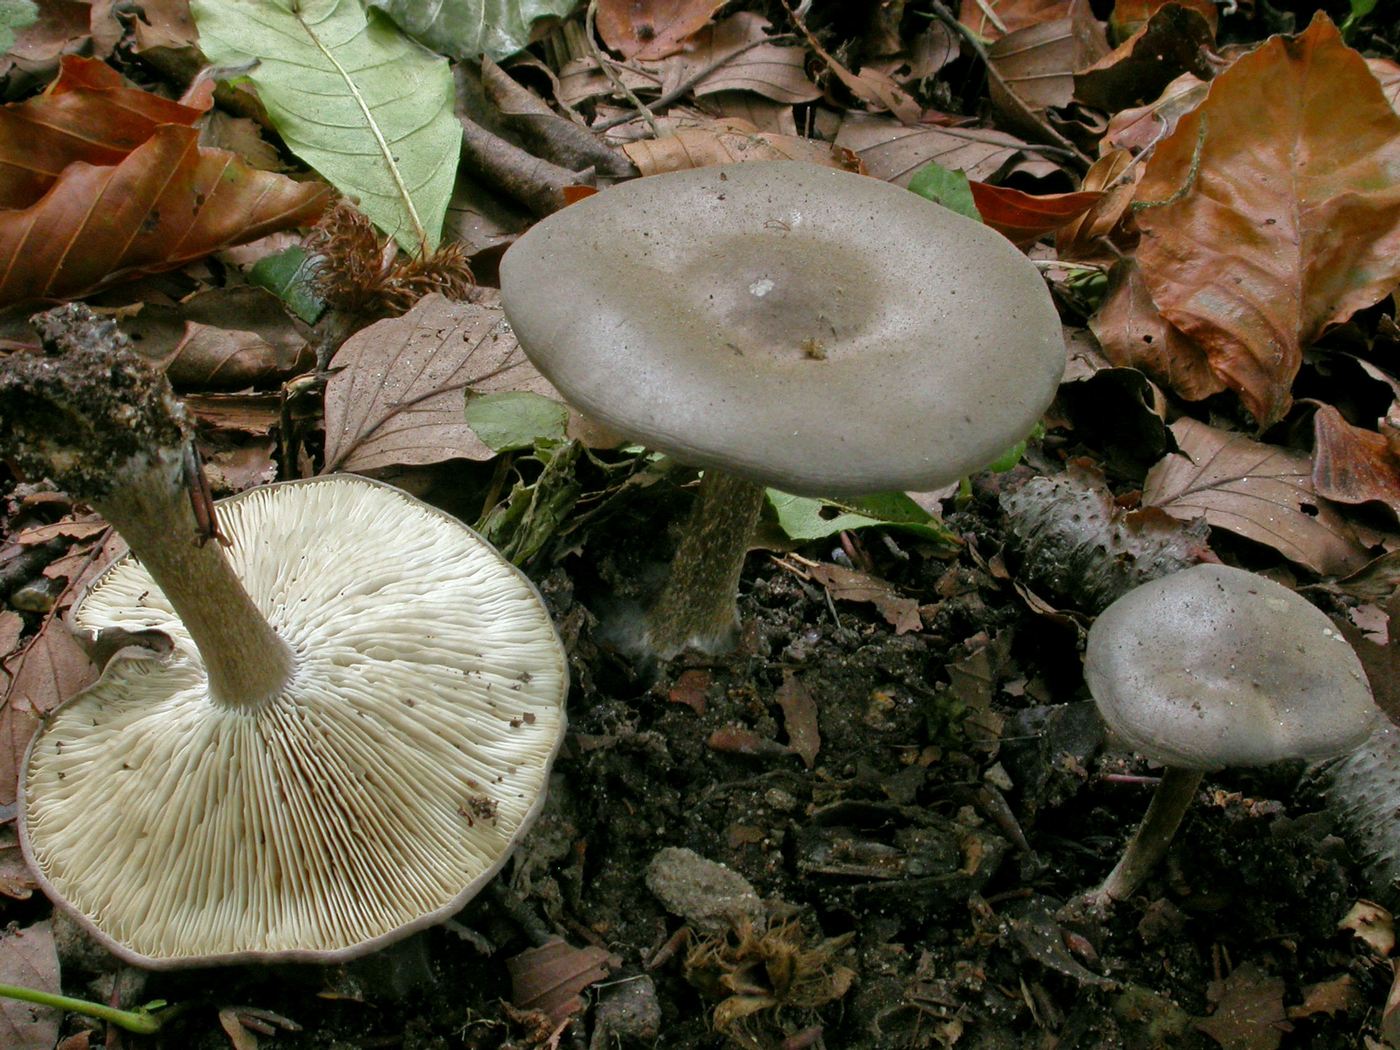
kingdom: Fungi
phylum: Basidiomycota
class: Agaricomycetes
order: Agaricales
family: Tricholomataceae
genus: Melanoleuca
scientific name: Melanoleuca polioleuca
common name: almindelig munkehat
